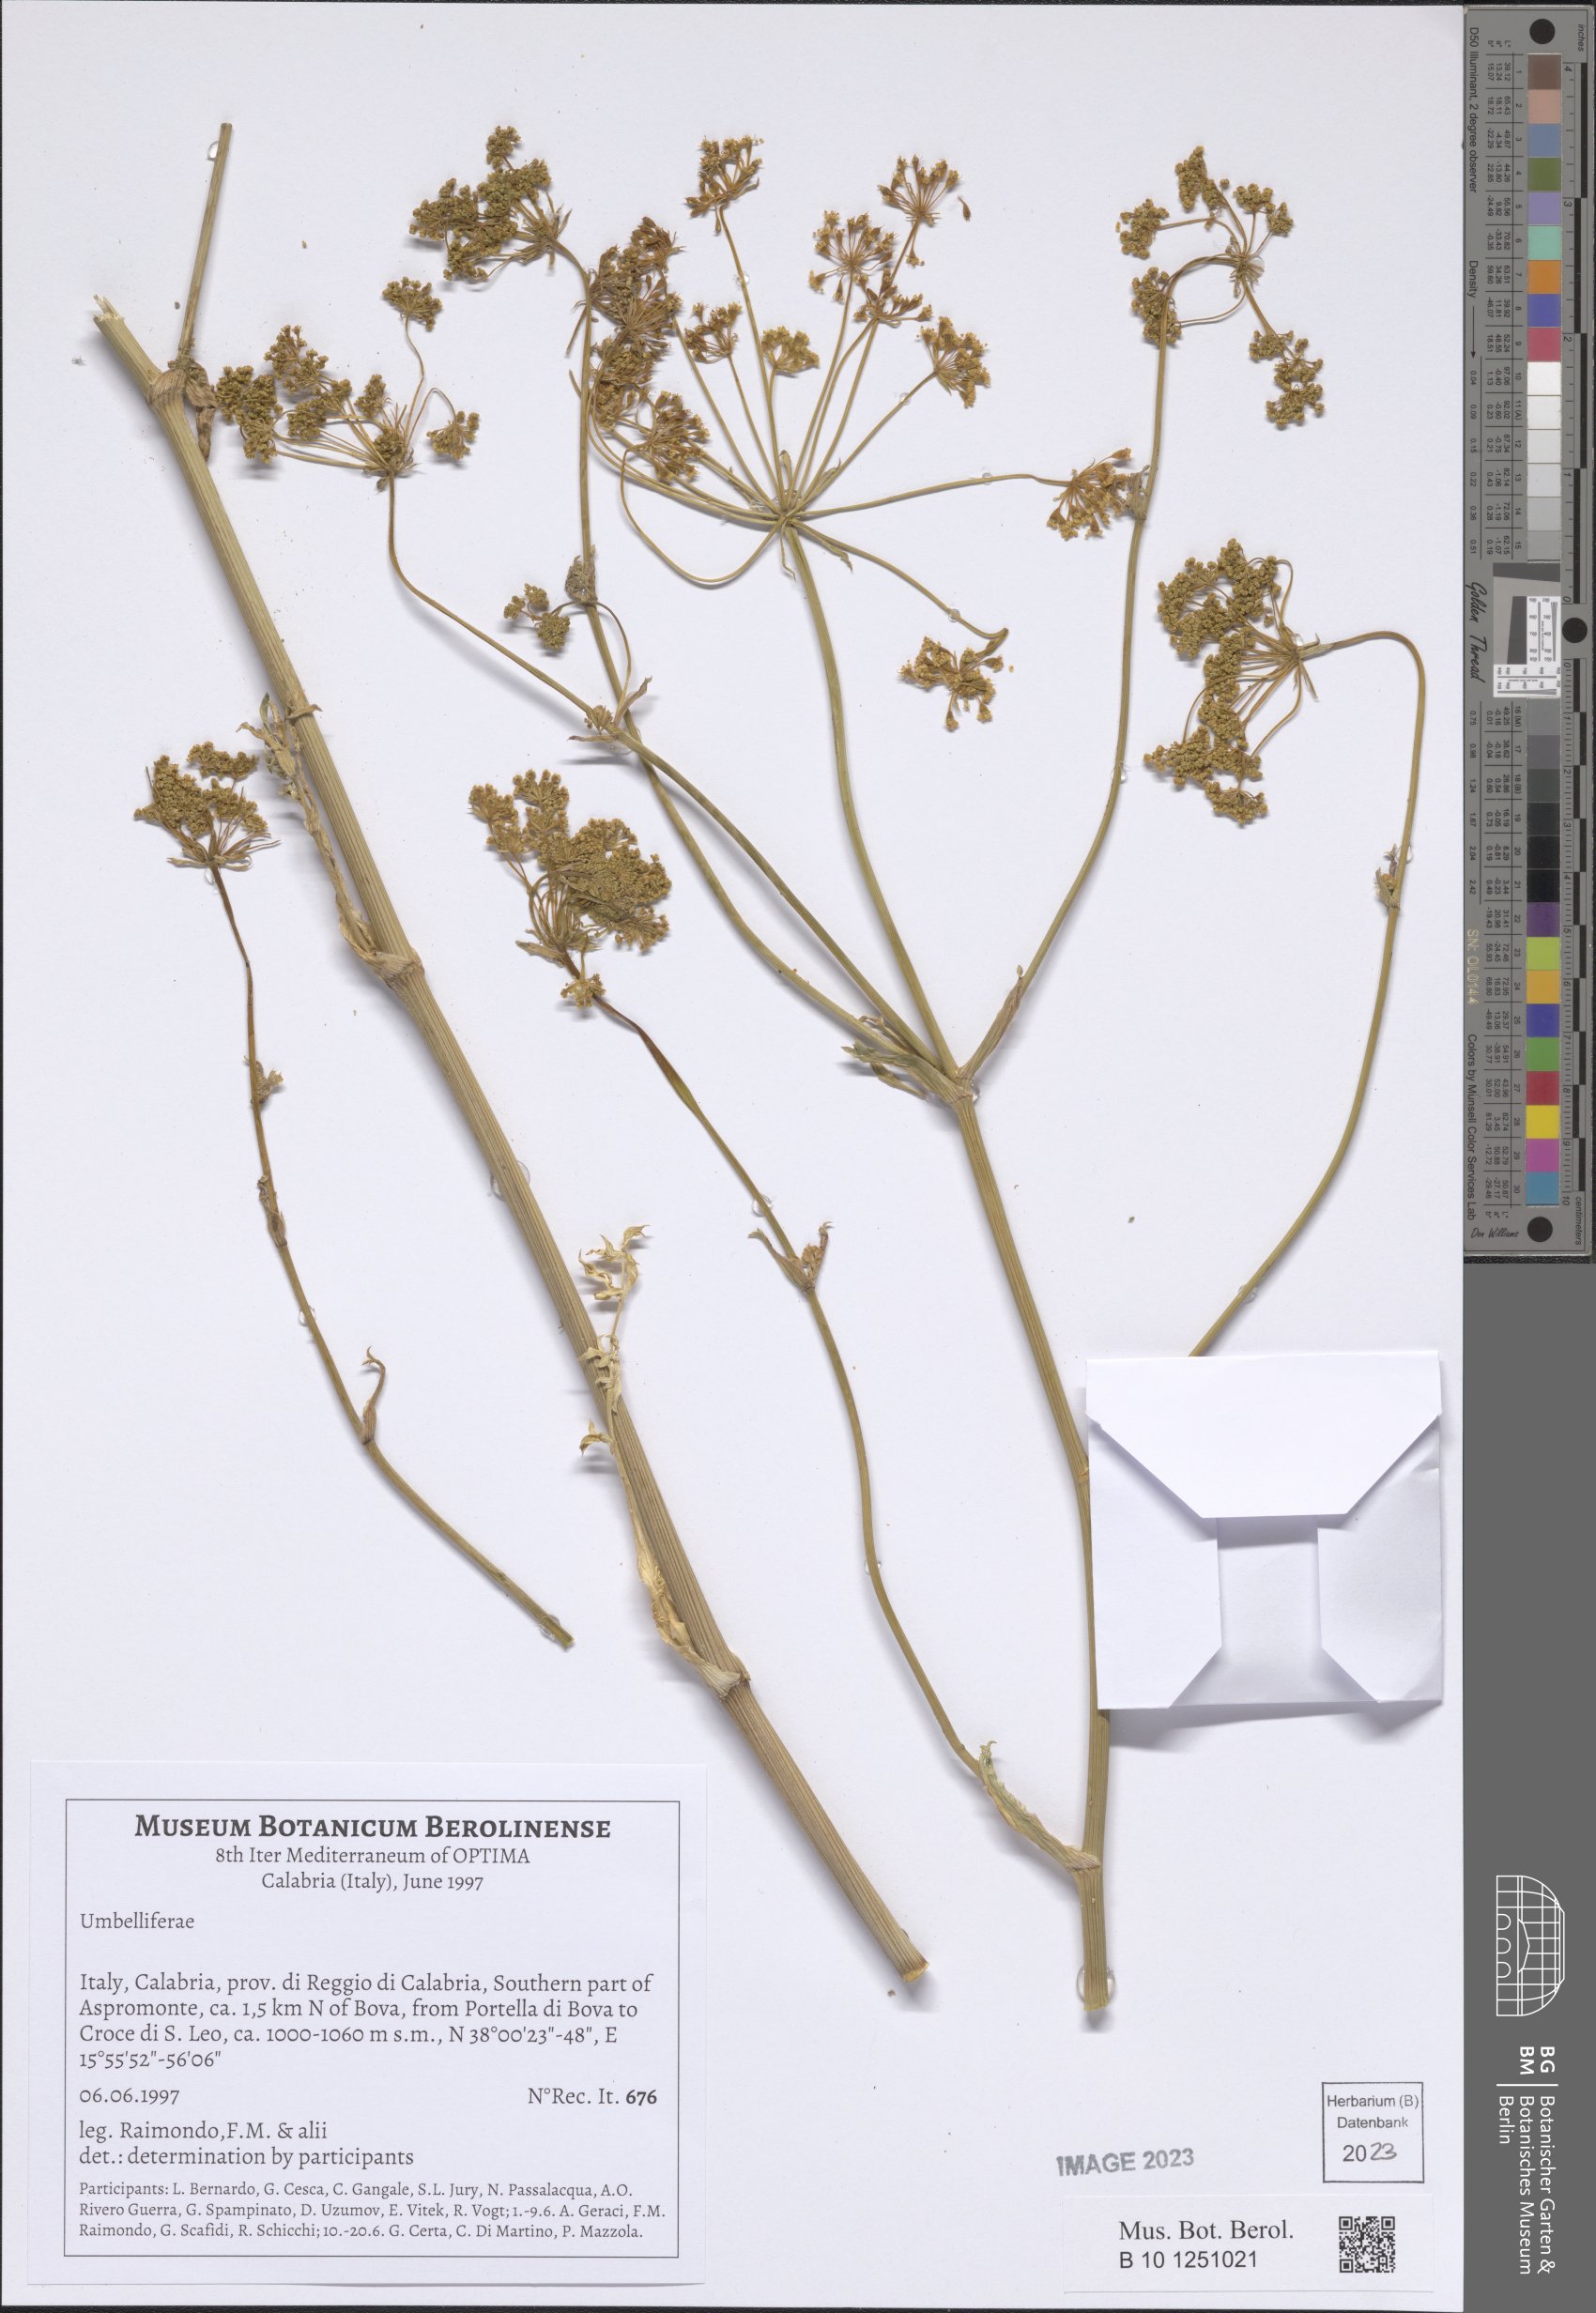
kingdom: Plantae
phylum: Tracheophyta
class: Magnoliopsida
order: Apiales
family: Apiaceae
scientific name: Apiaceae
